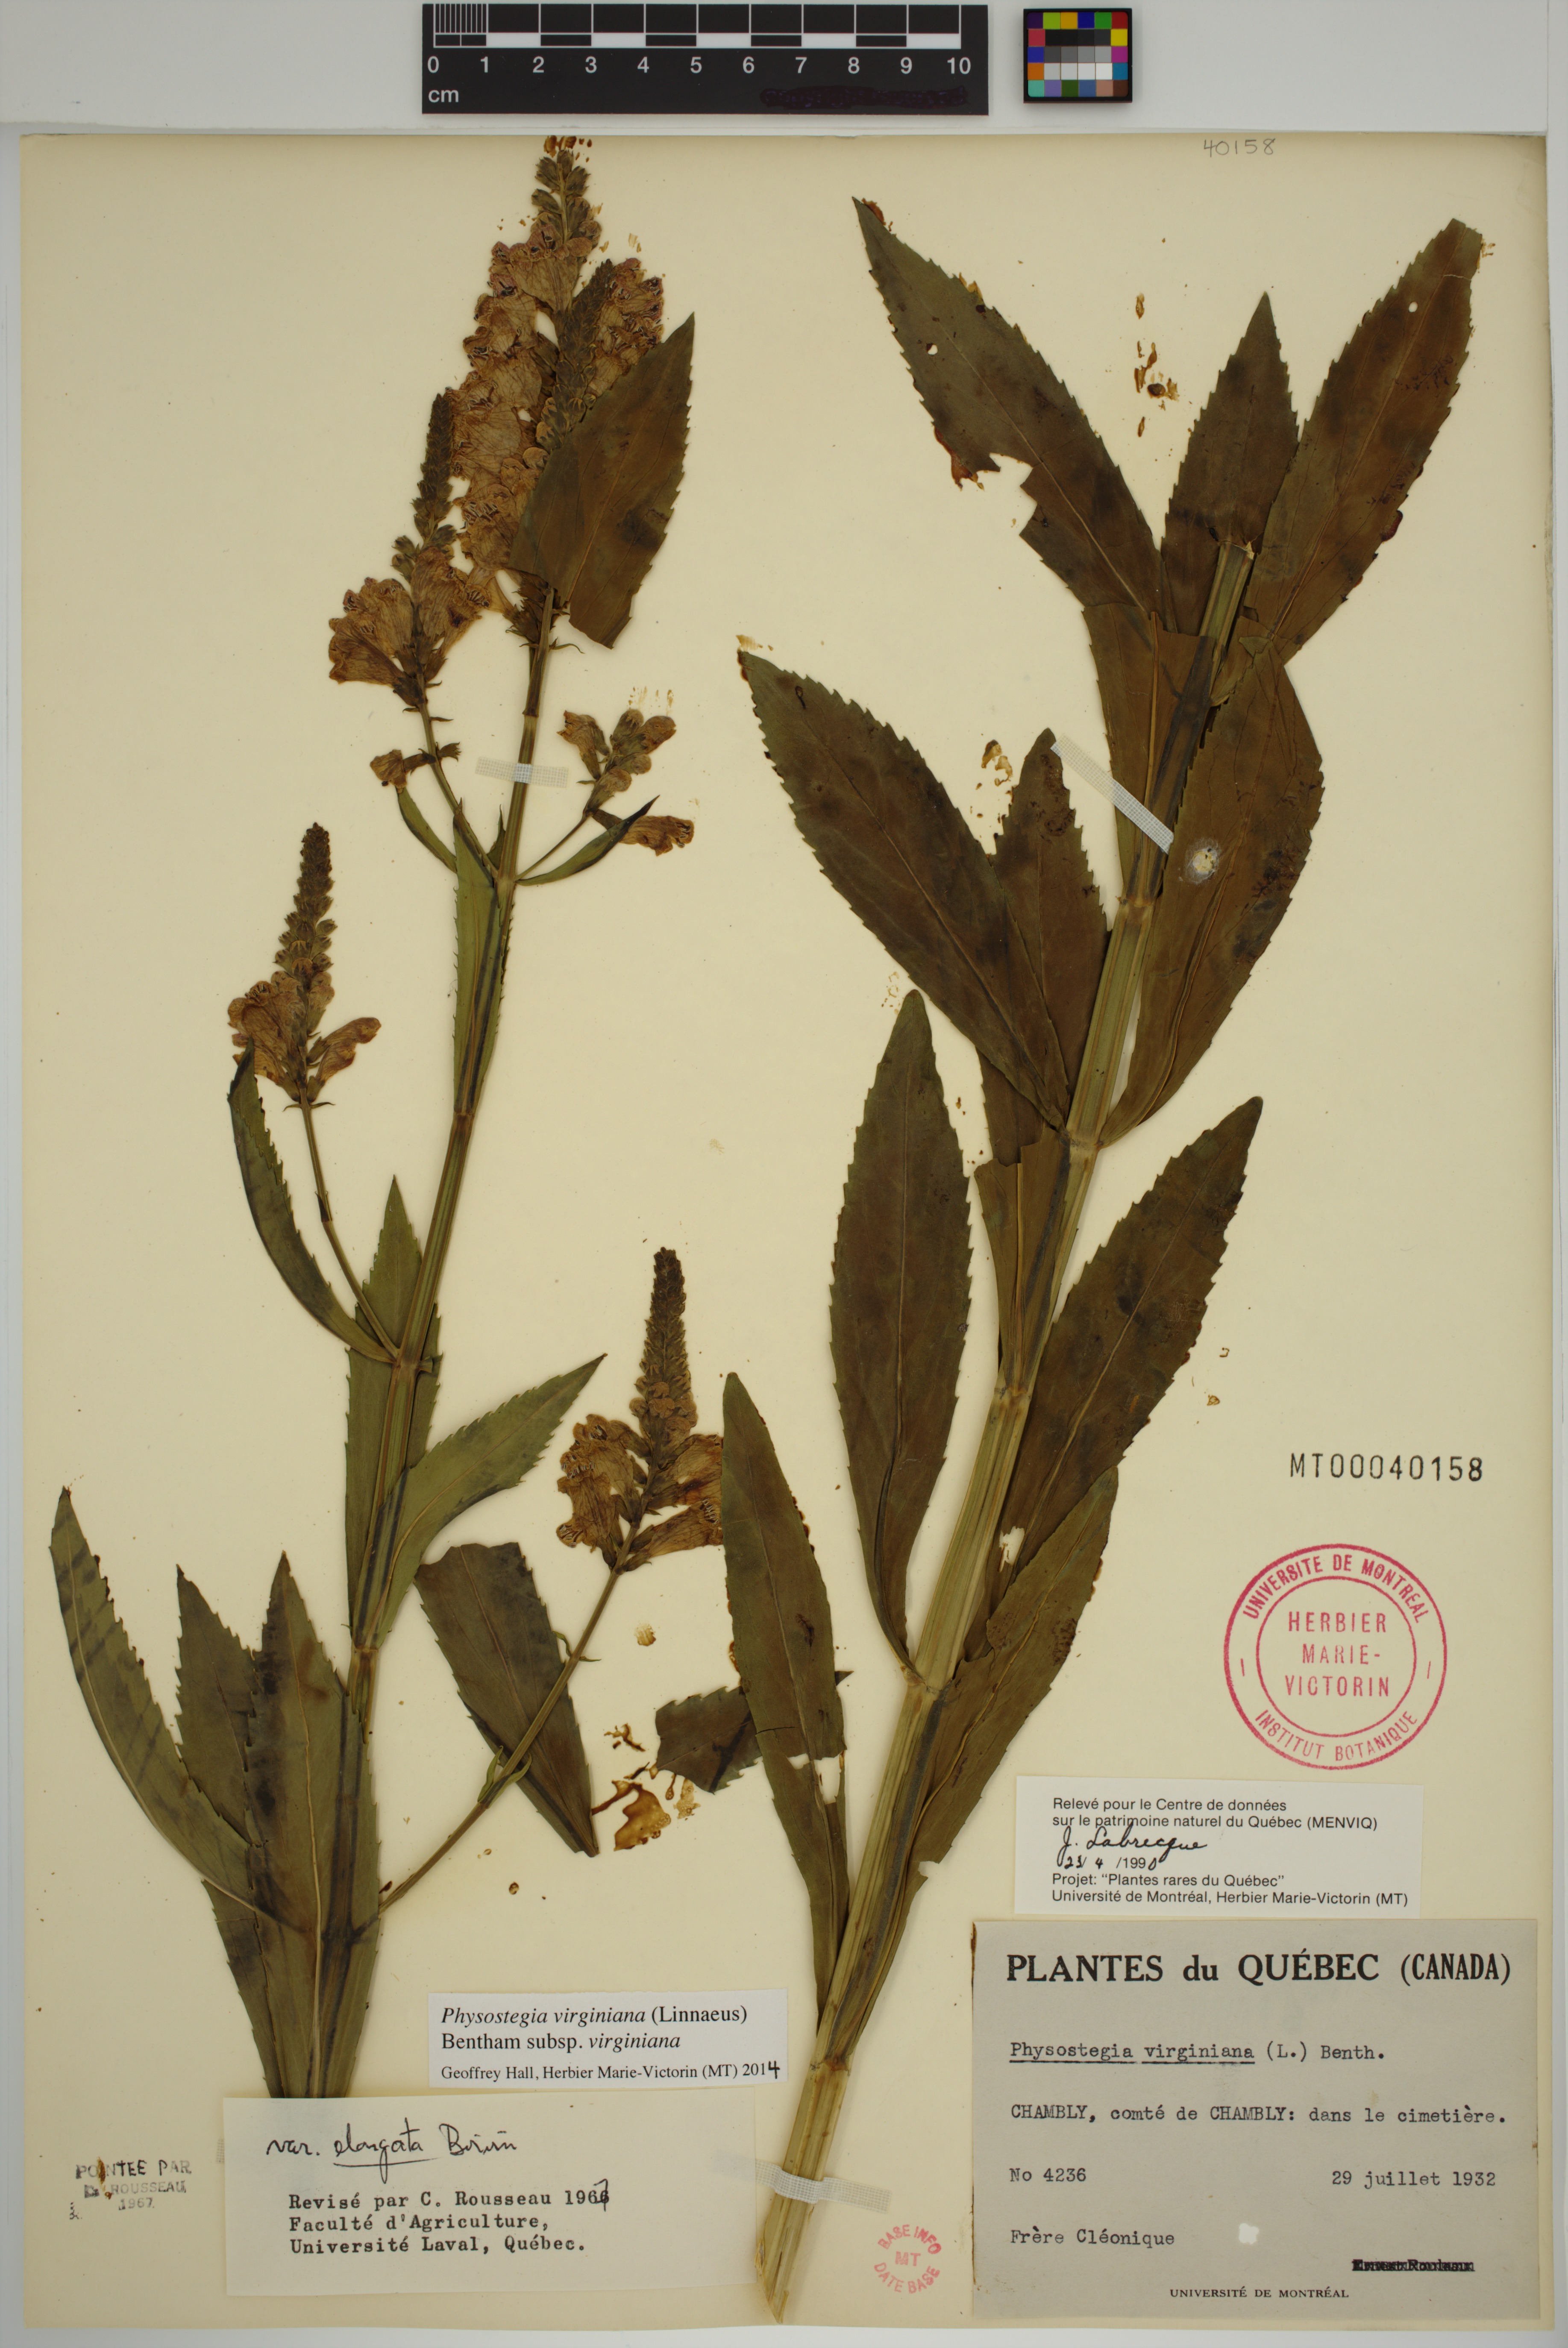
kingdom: Plantae
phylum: Tracheophyta
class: Magnoliopsida
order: Lamiales
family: Lamiaceae
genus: Physostegia
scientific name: Physostegia virginiana
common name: Obedient-plant
